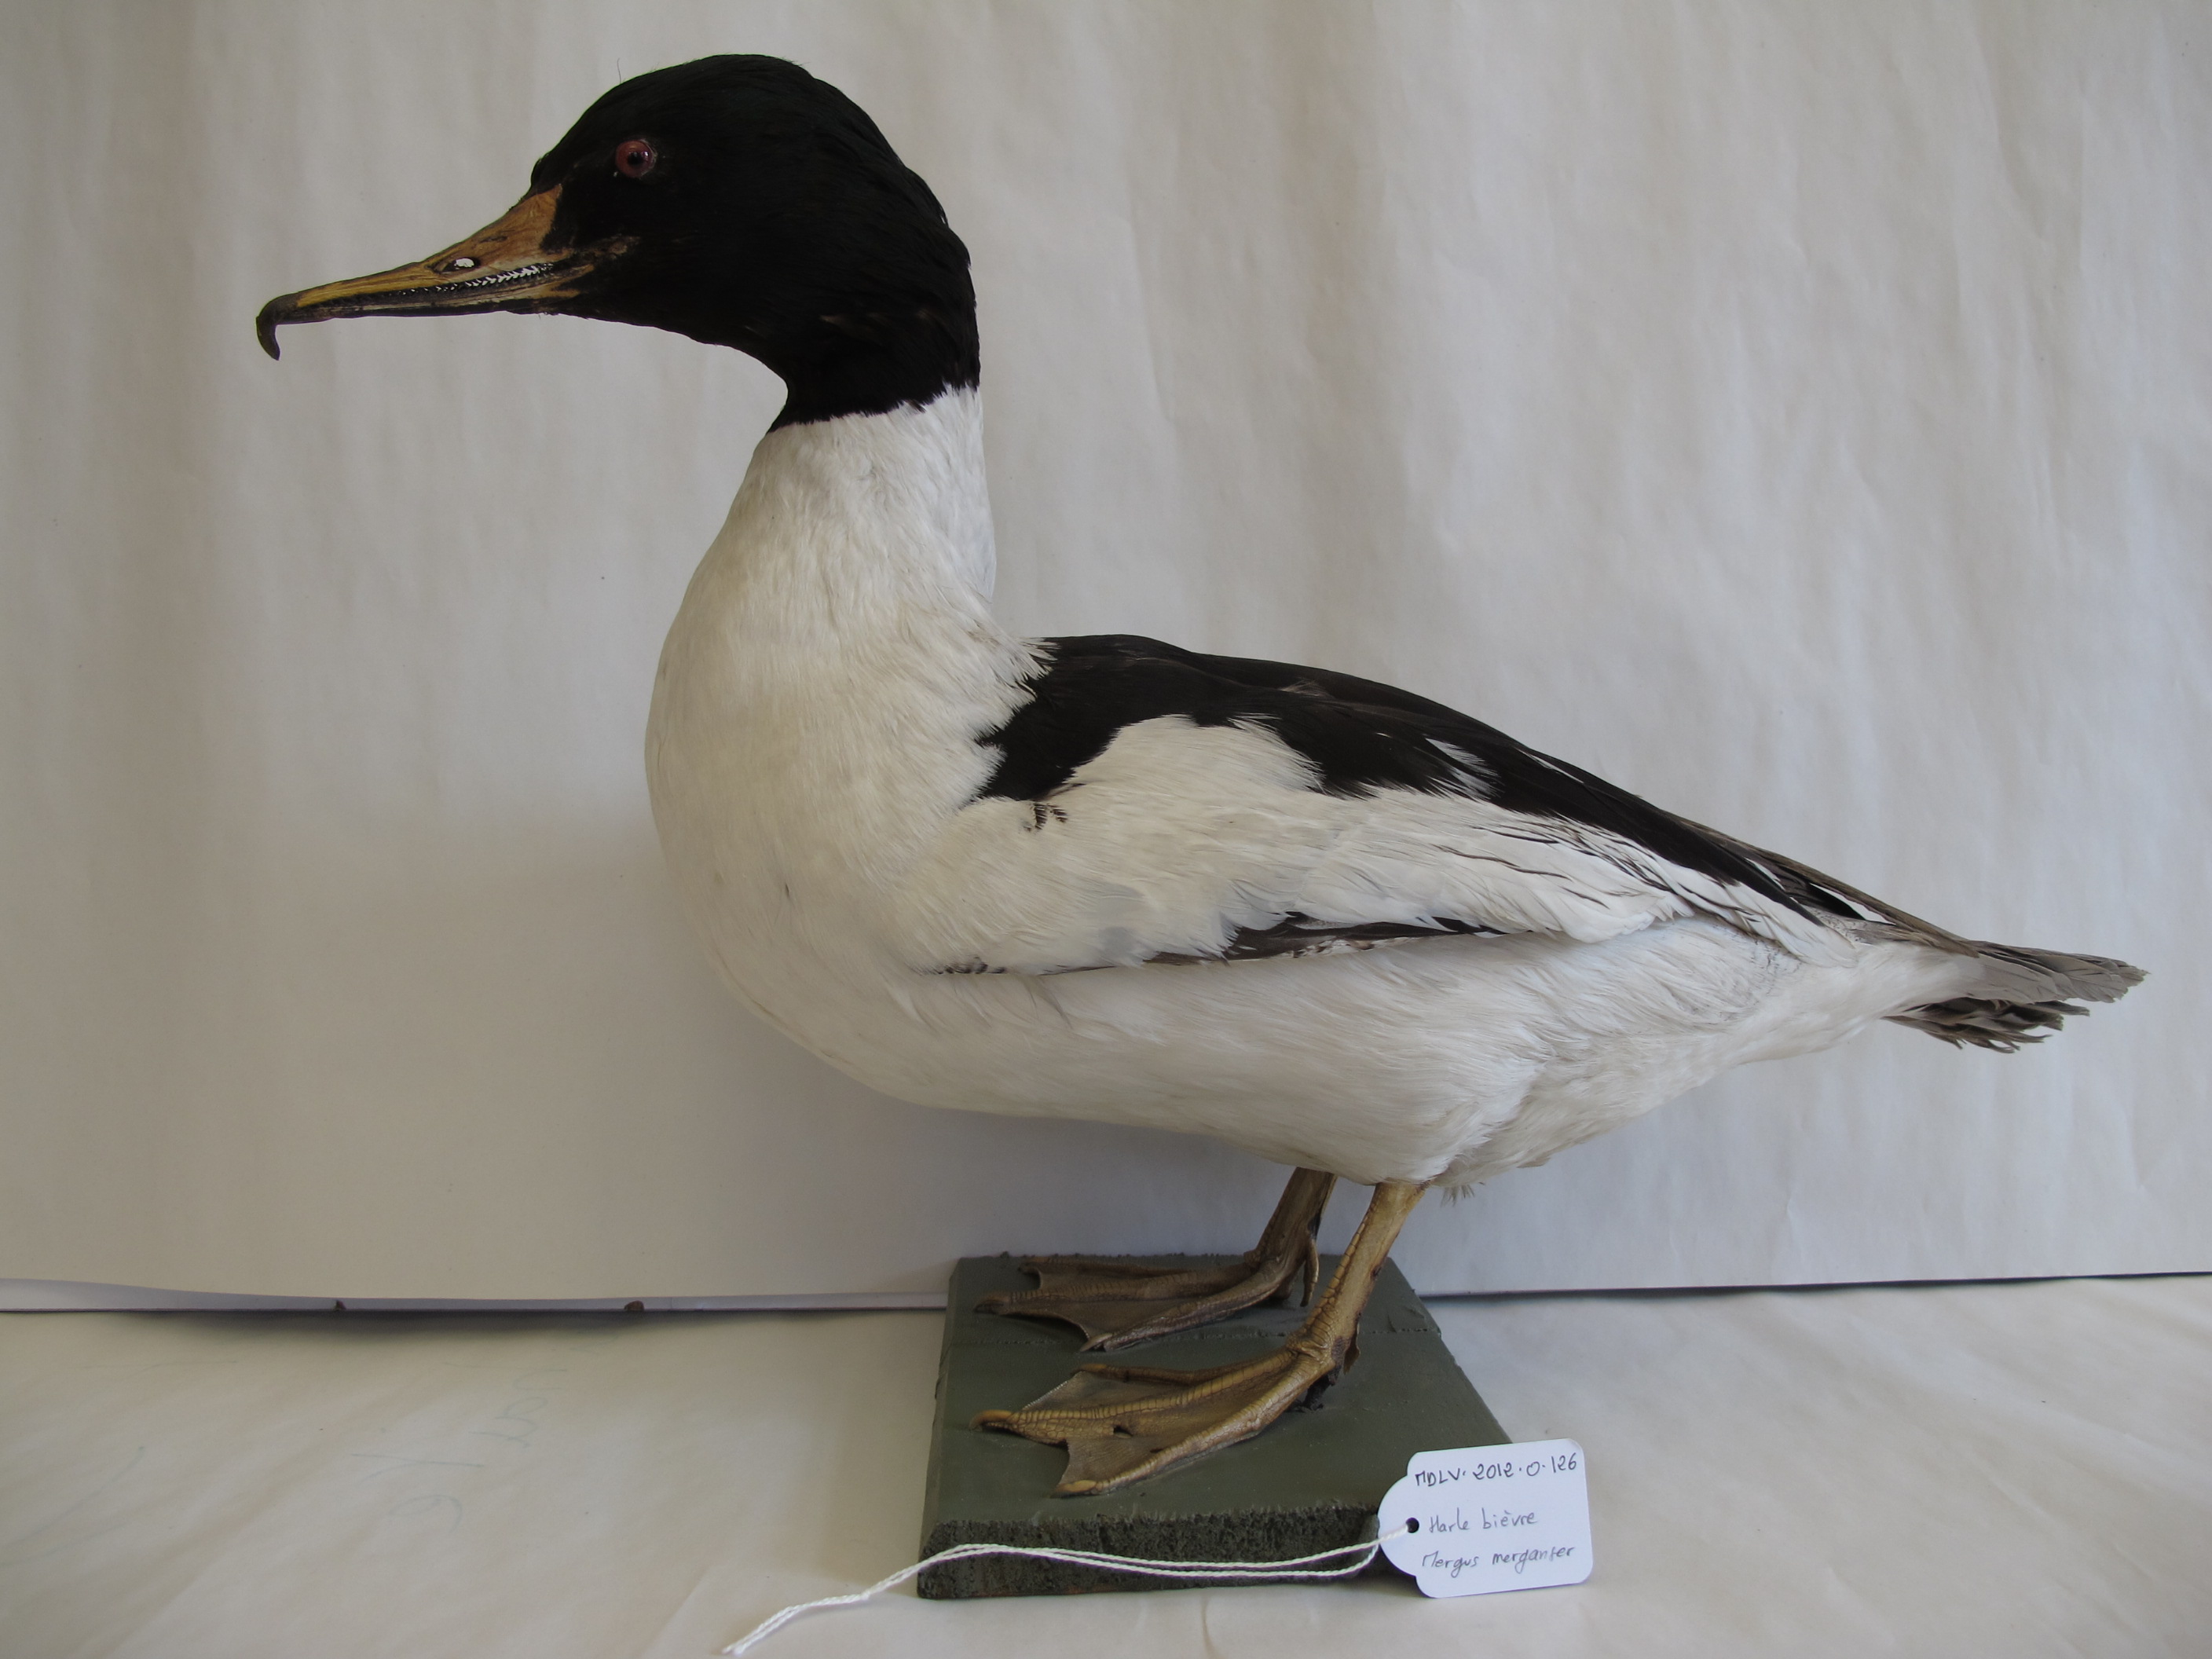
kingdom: Animalia
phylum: Chordata
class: Aves
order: Anseriformes
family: Anatidae
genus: Mergus
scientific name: Mergus merganser
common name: Goosander
